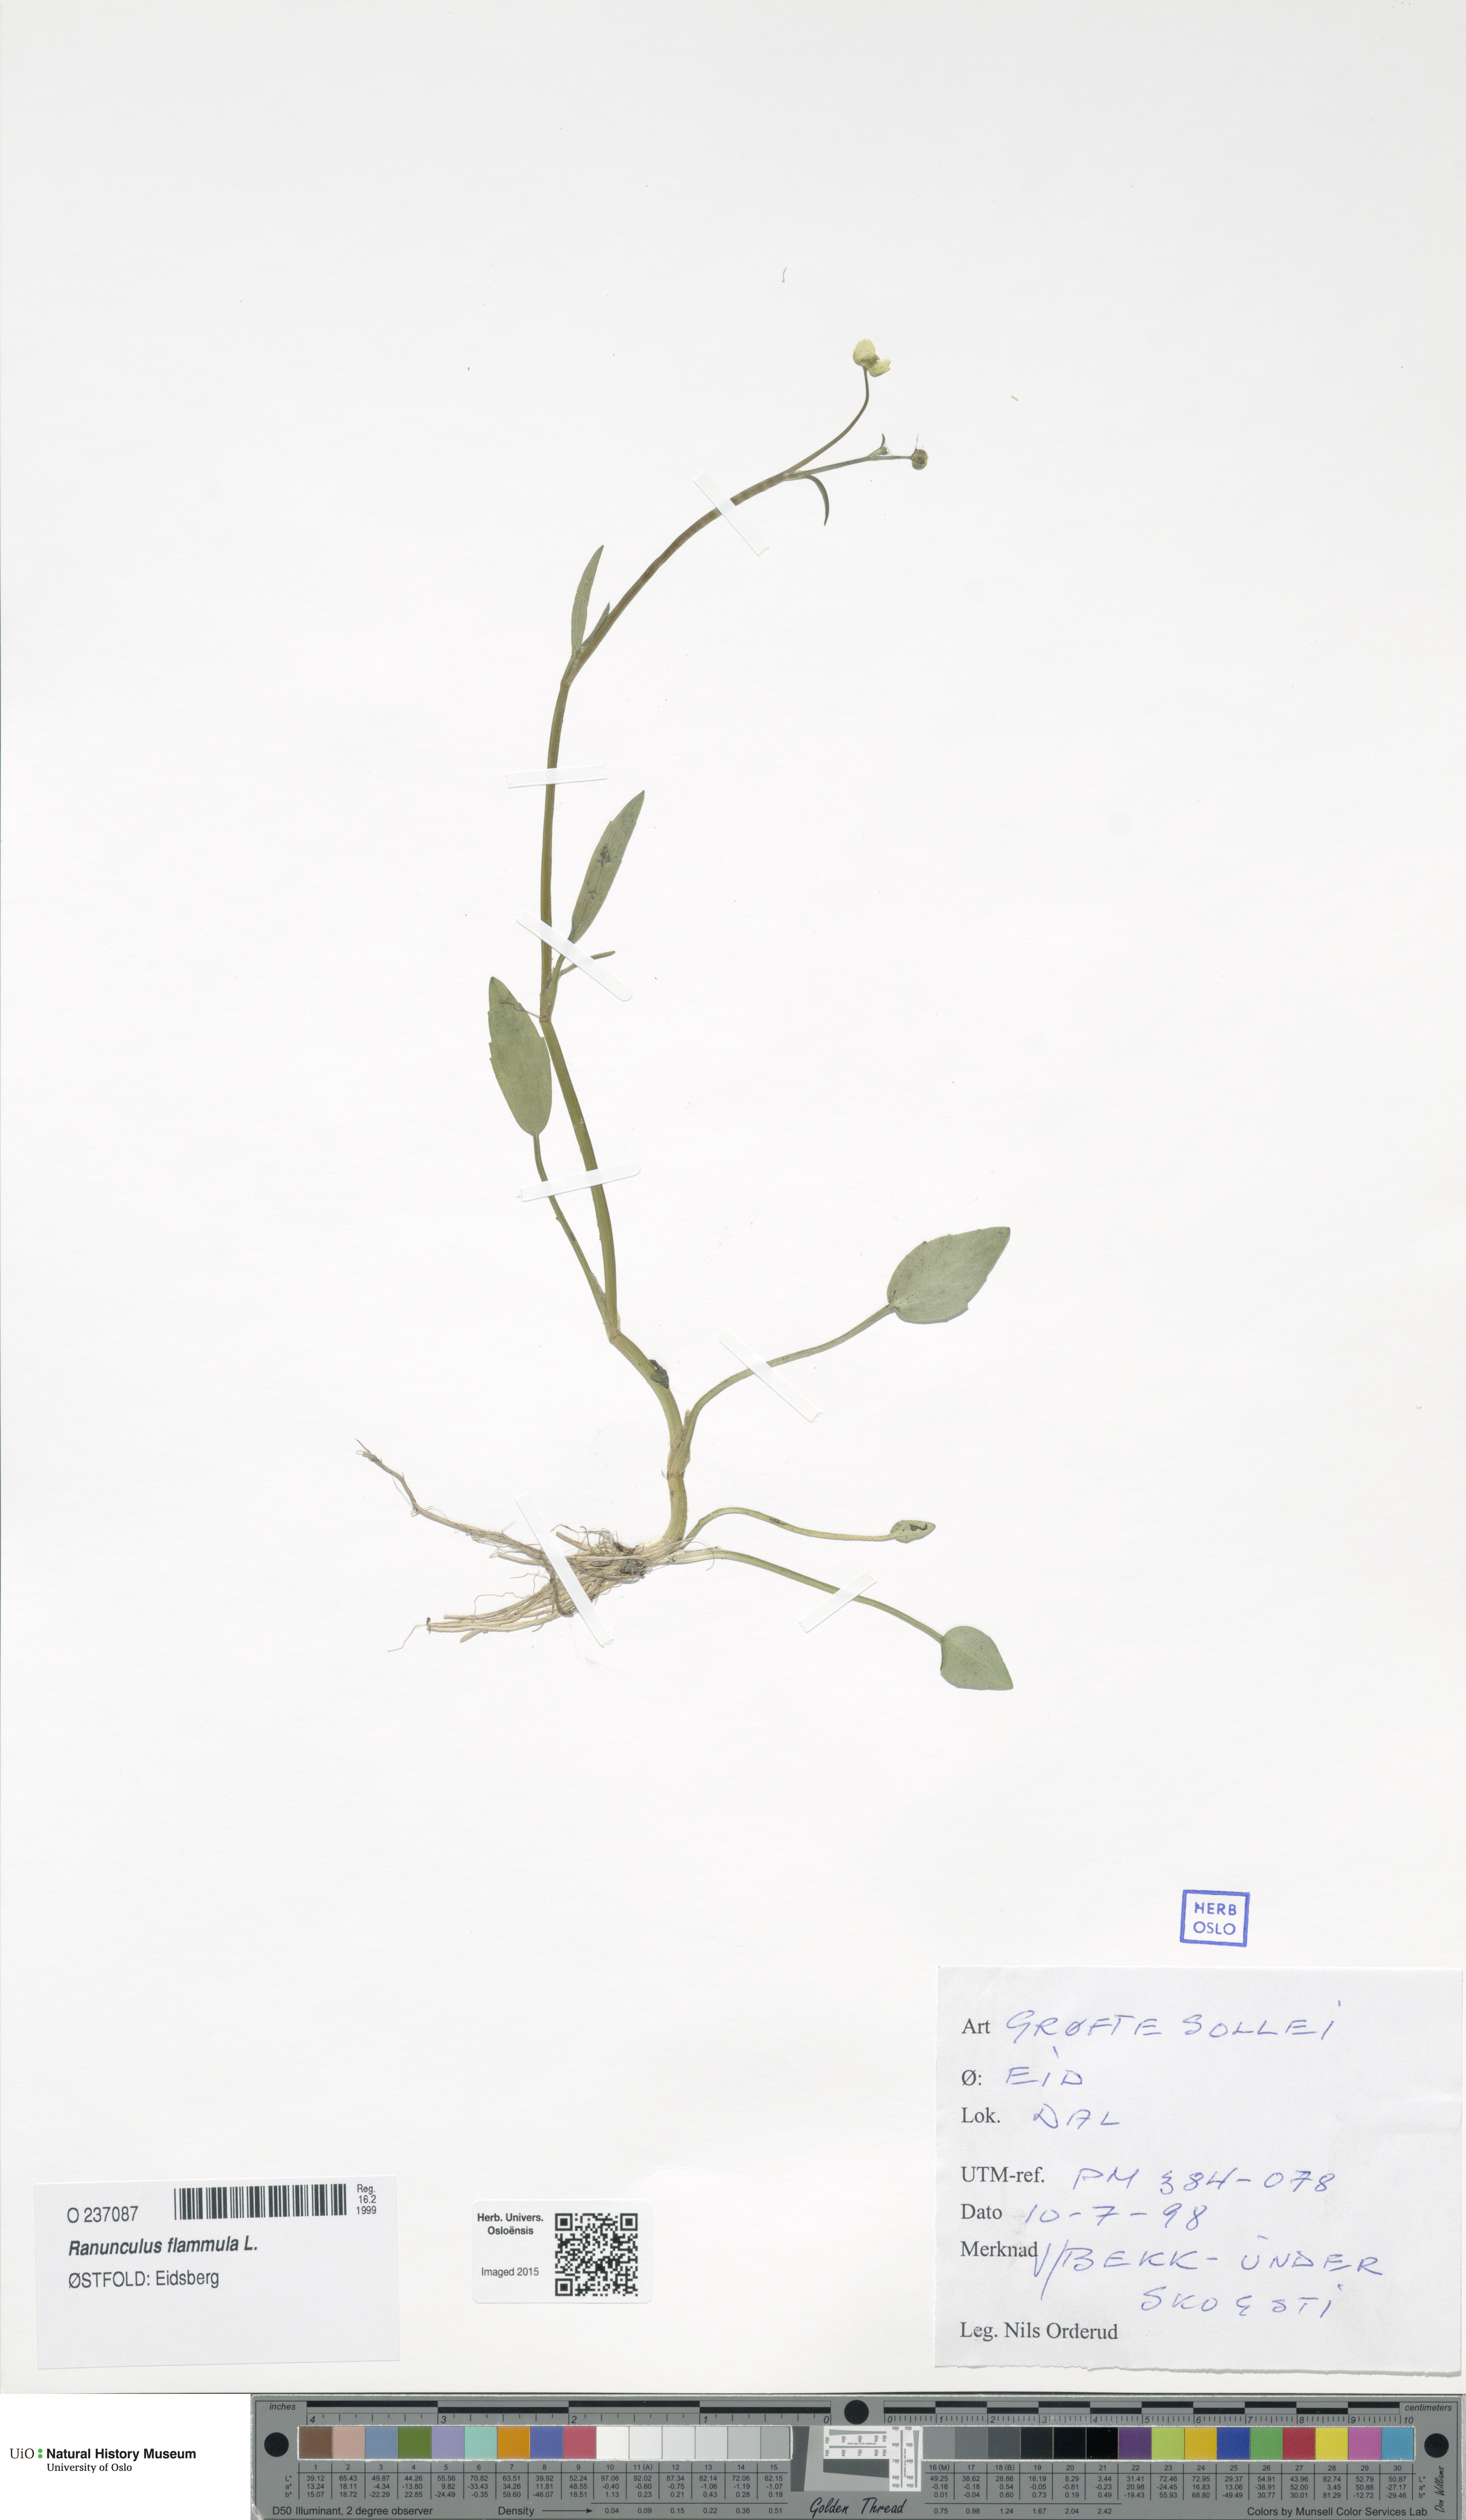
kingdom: Plantae
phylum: Tracheophyta
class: Magnoliopsida
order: Ranunculales
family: Ranunculaceae
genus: Ranunculus
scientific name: Ranunculus flammula
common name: Lesser spearwort
